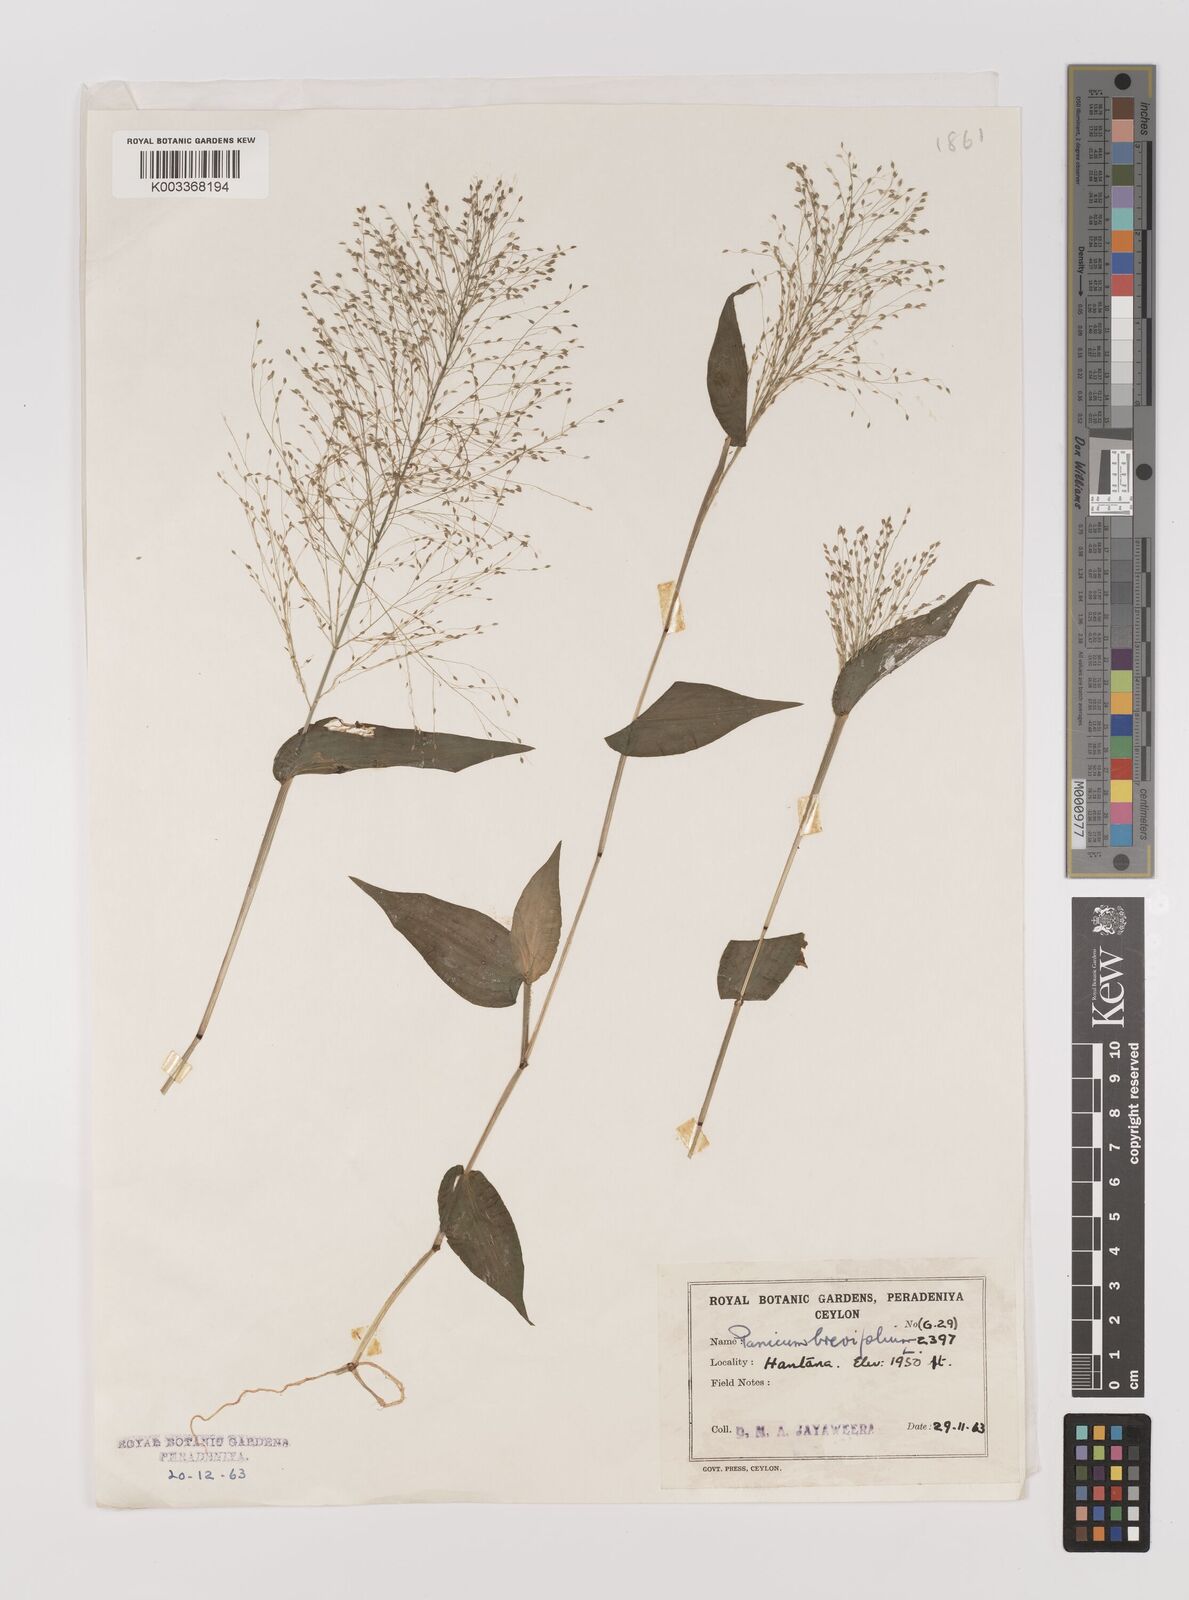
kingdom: Plantae
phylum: Tracheophyta
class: Liliopsida
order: Poales
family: Poaceae
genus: Panicum
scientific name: Panicum brevifolium
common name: Shortleaf panic grass
